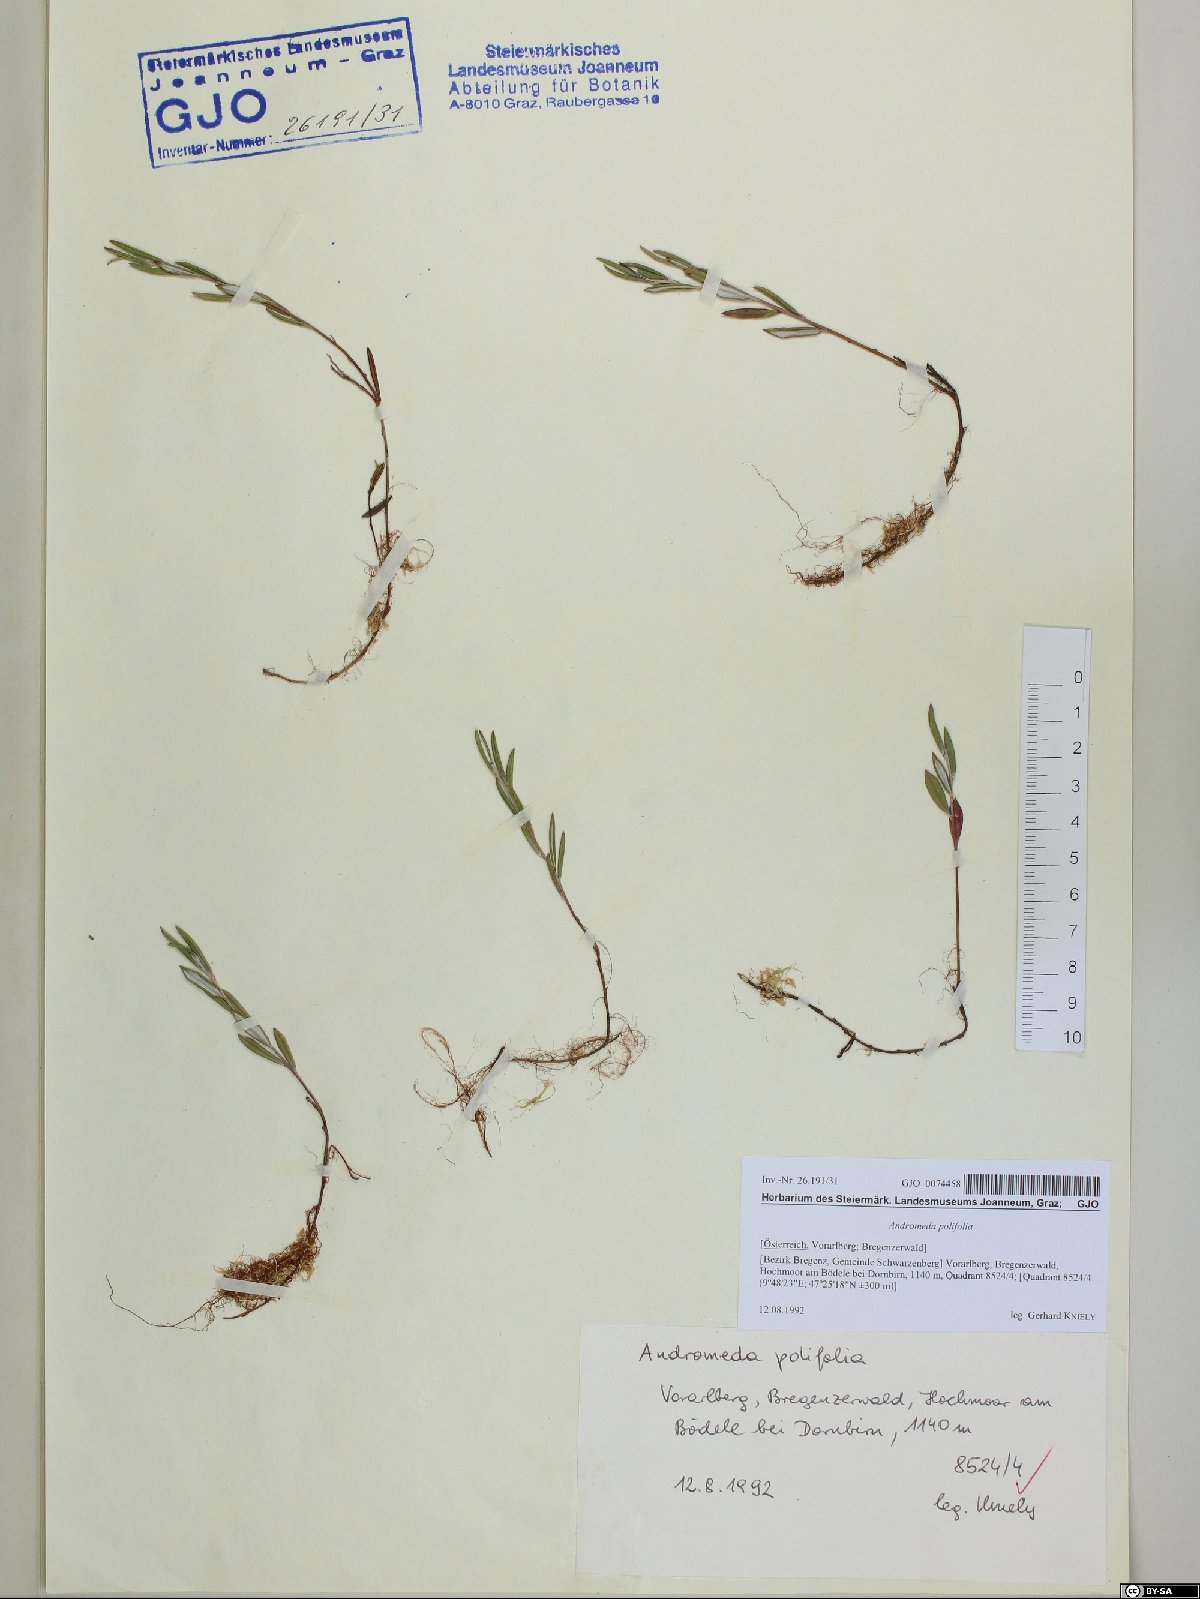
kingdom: Plantae
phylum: Tracheophyta
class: Magnoliopsida
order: Ericales
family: Ericaceae
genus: Andromeda
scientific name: Andromeda polifolia
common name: Bog-rosemary
